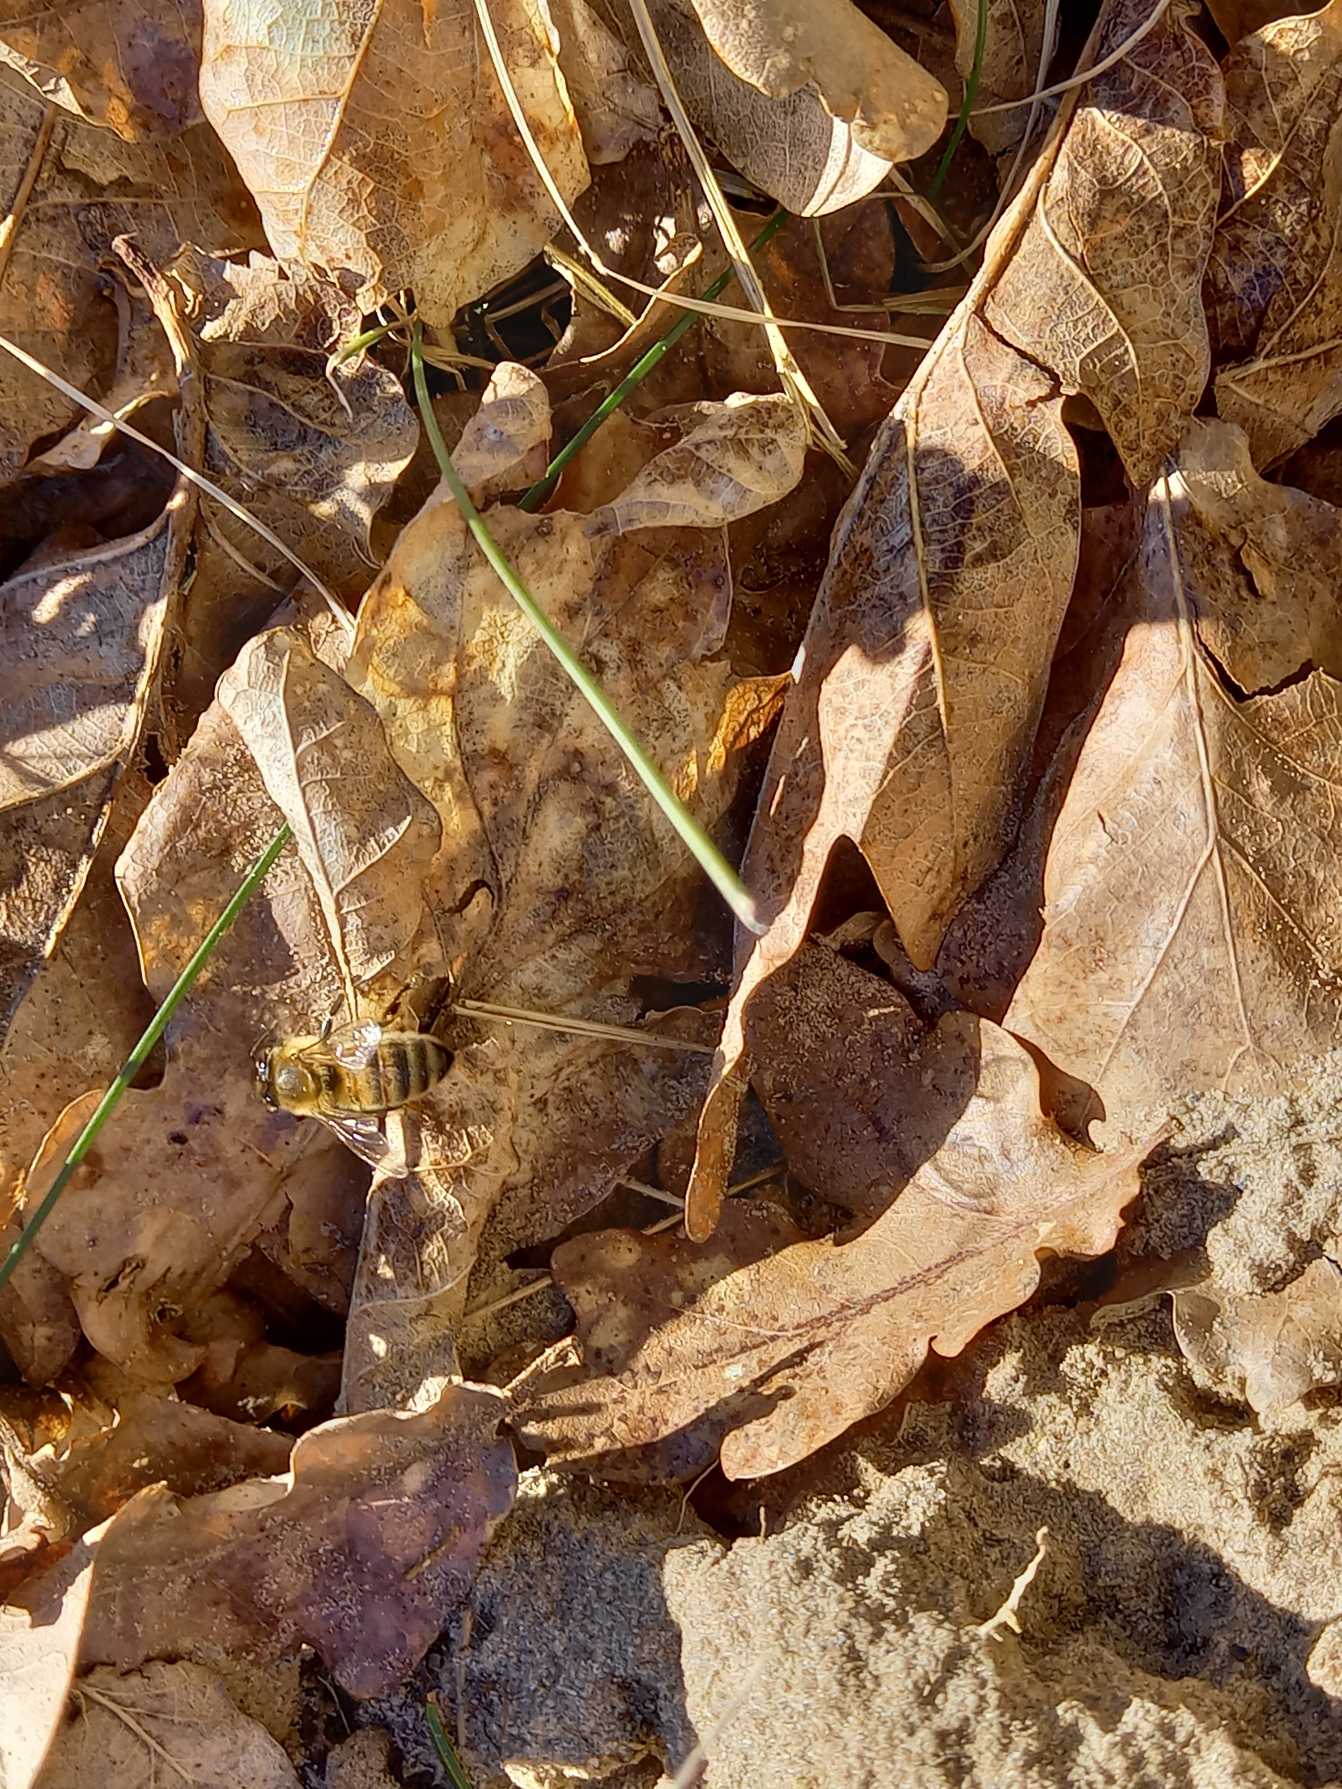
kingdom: Animalia
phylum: Arthropoda
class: Insecta
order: Hymenoptera
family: Apidae
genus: Apis
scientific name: Apis mellifera
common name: Honningbi
